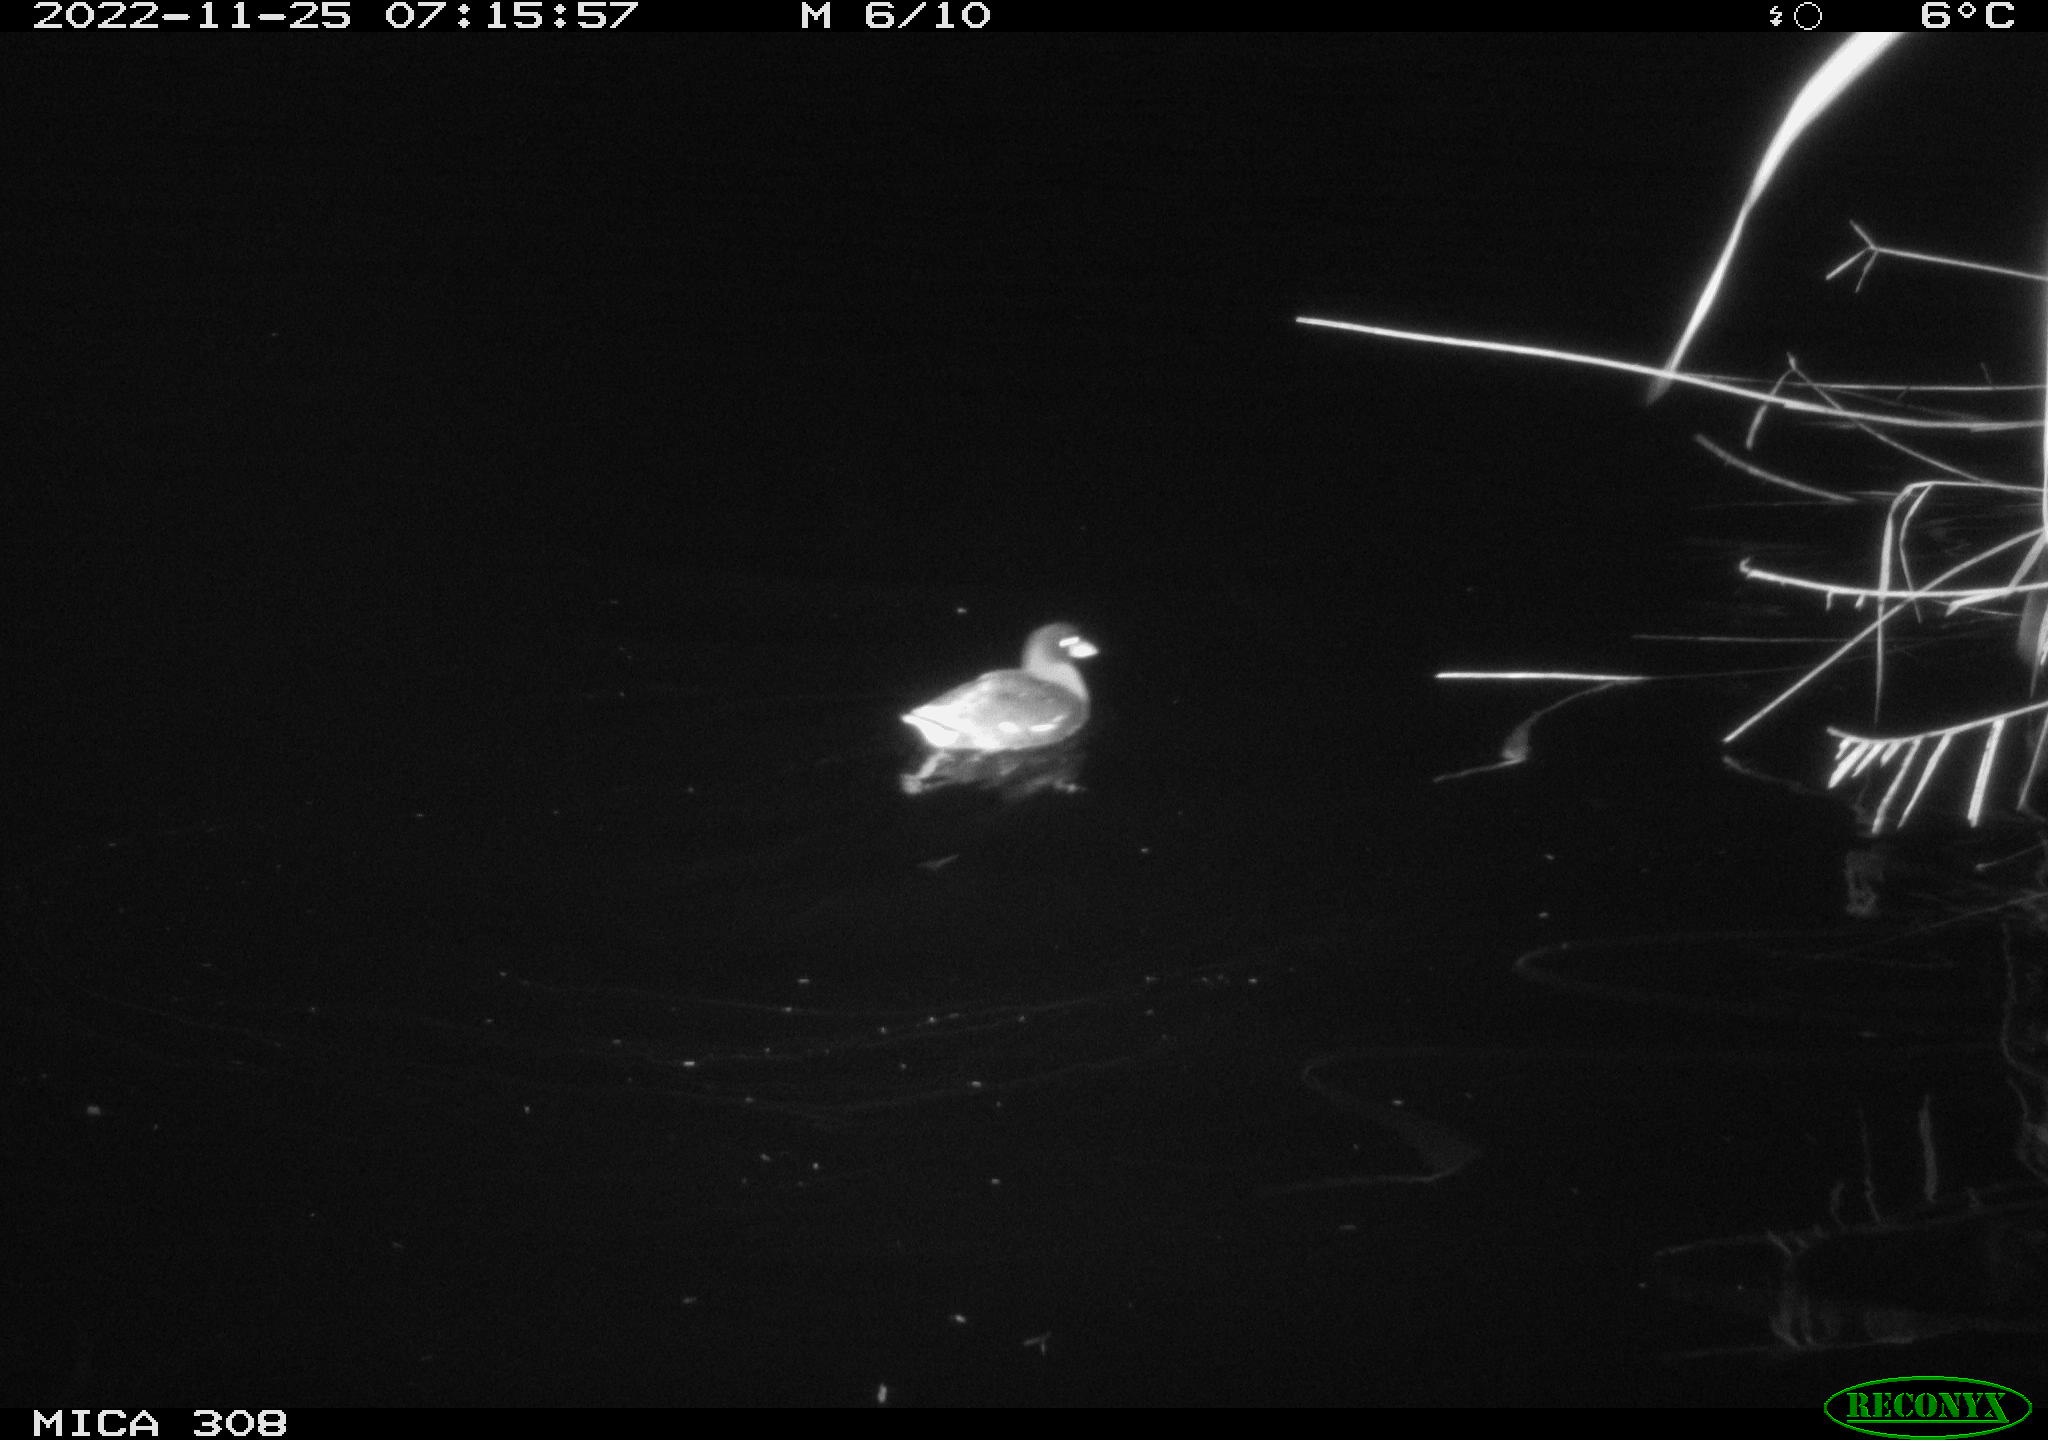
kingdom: Animalia
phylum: Chordata
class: Aves
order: Gruiformes
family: Rallidae
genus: Gallinula
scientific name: Gallinula chloropus
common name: Common moorhen
